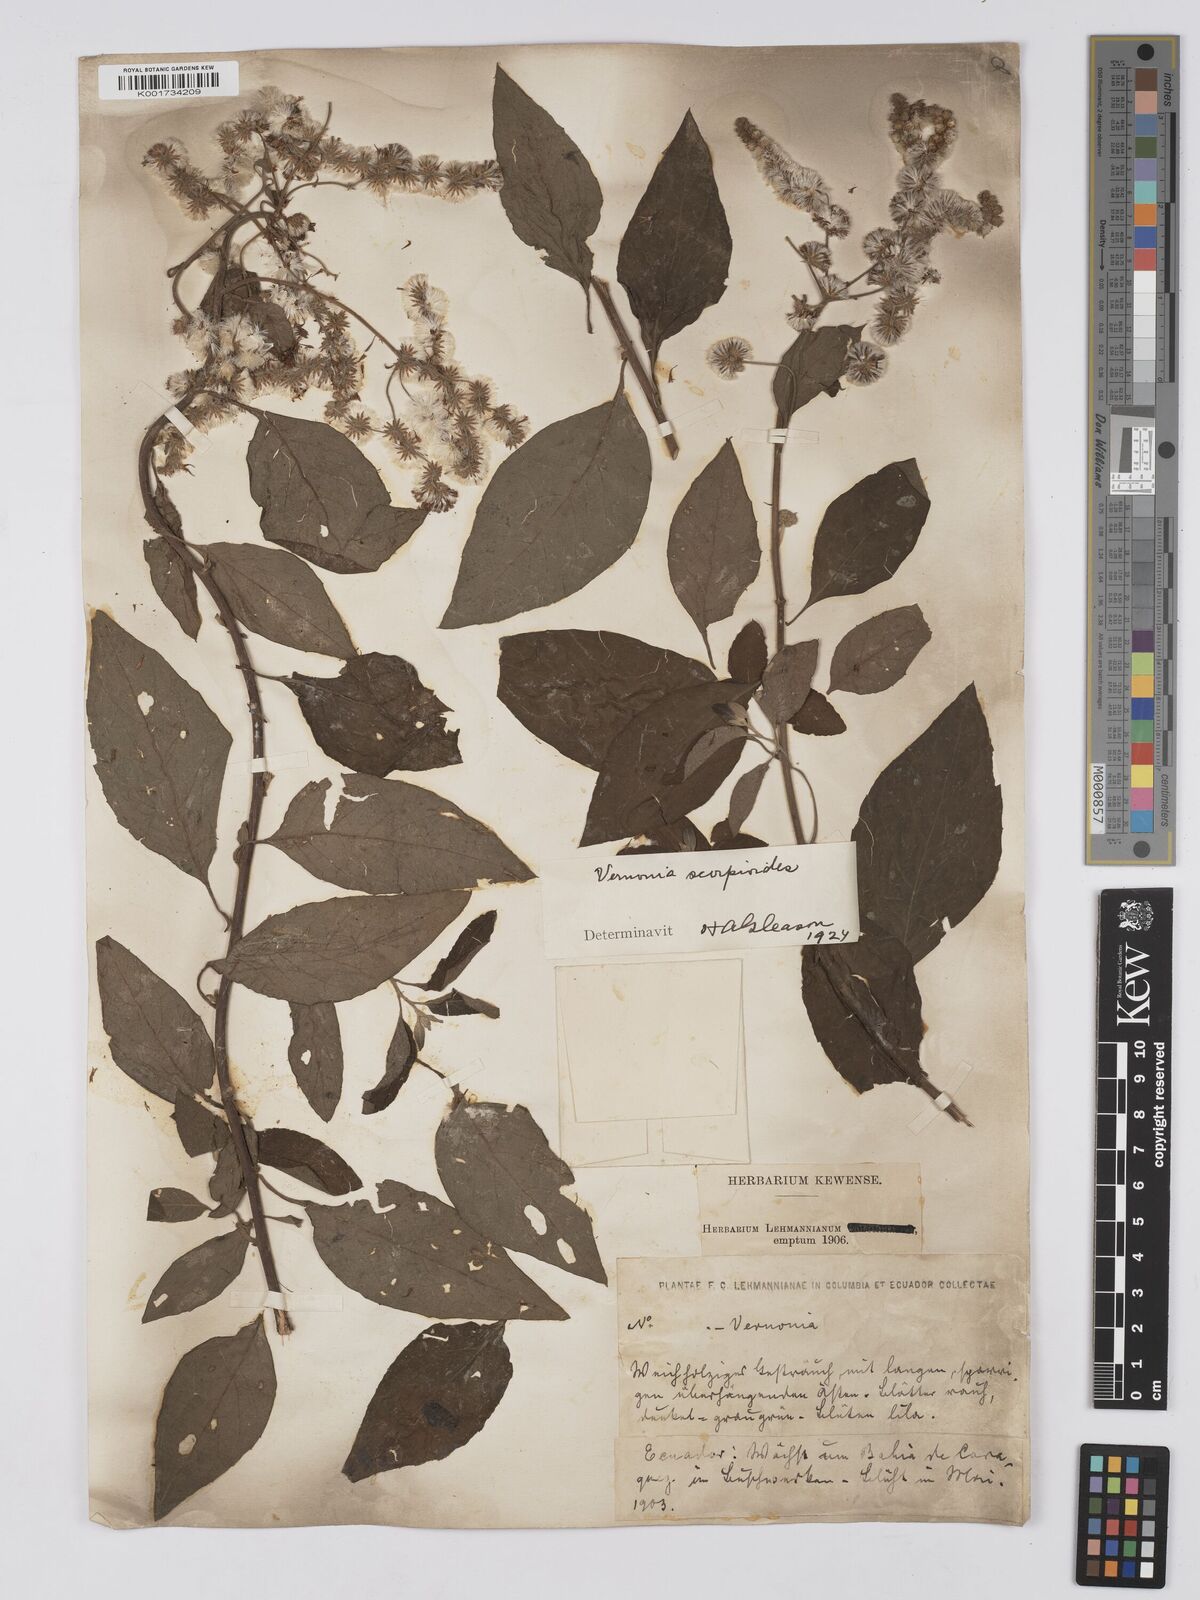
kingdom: Plantae
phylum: Tracheophyta
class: Magnoliopsida
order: Asterales
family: Asteraceae
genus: Cyrtocymura
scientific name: Cyrtocymura scorpioides
